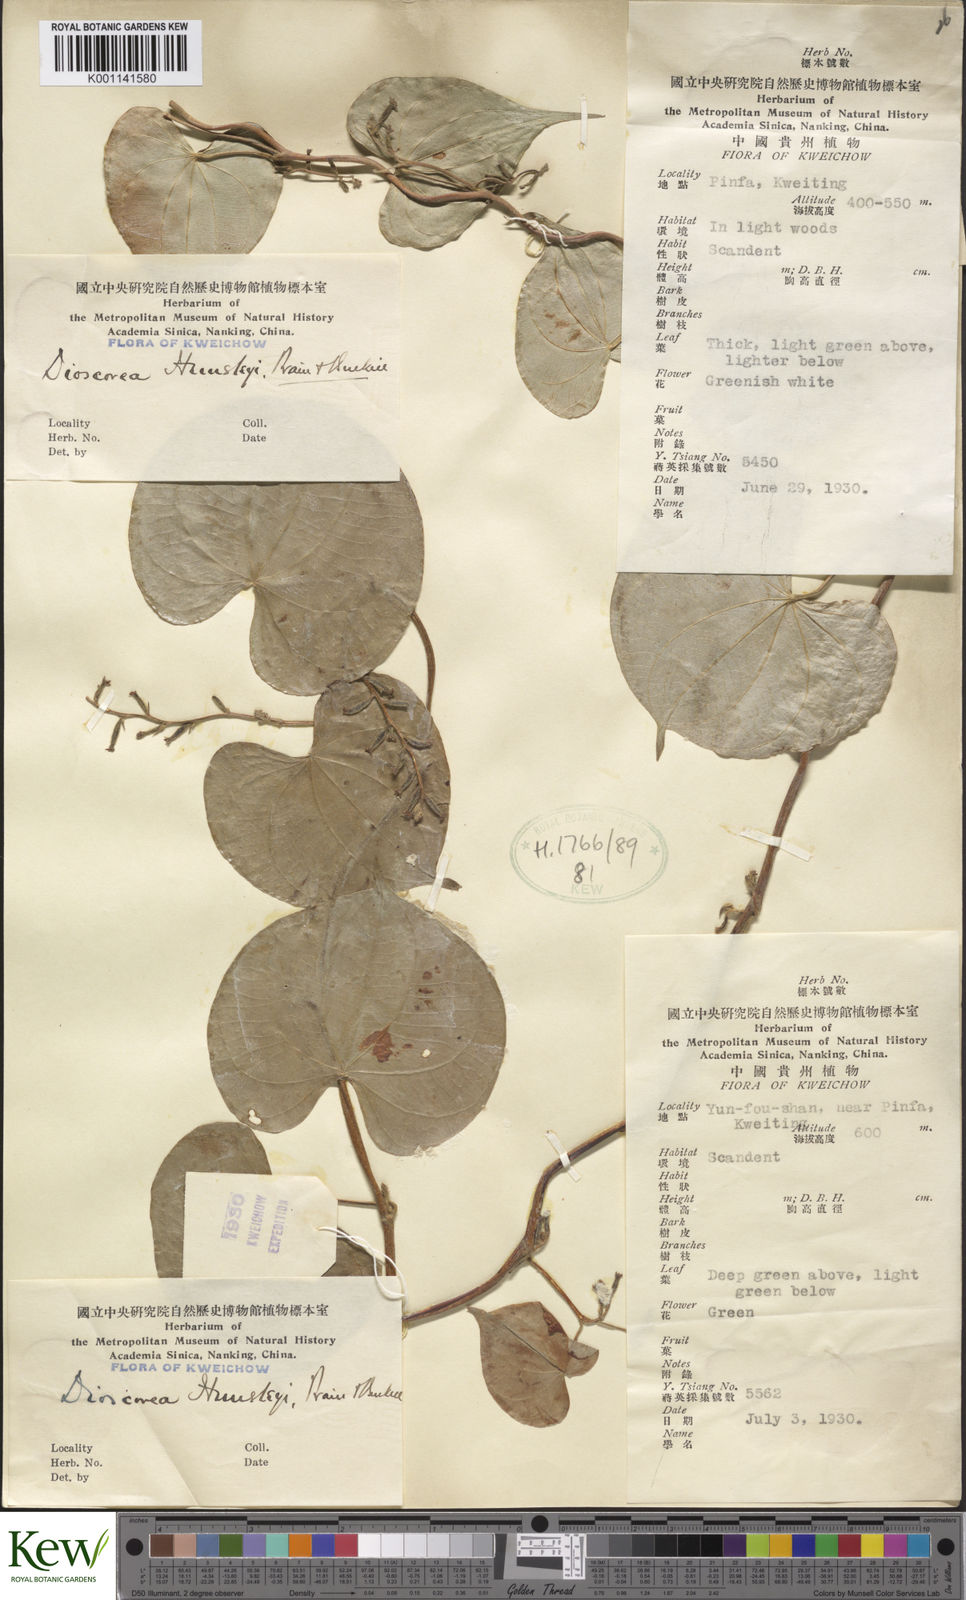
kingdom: Plantae
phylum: Tracheophyta
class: Liliopsida
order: Dioscoreales
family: Dioscoreaceae
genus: Dioscorea
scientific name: Dioscorea hemsleyi
